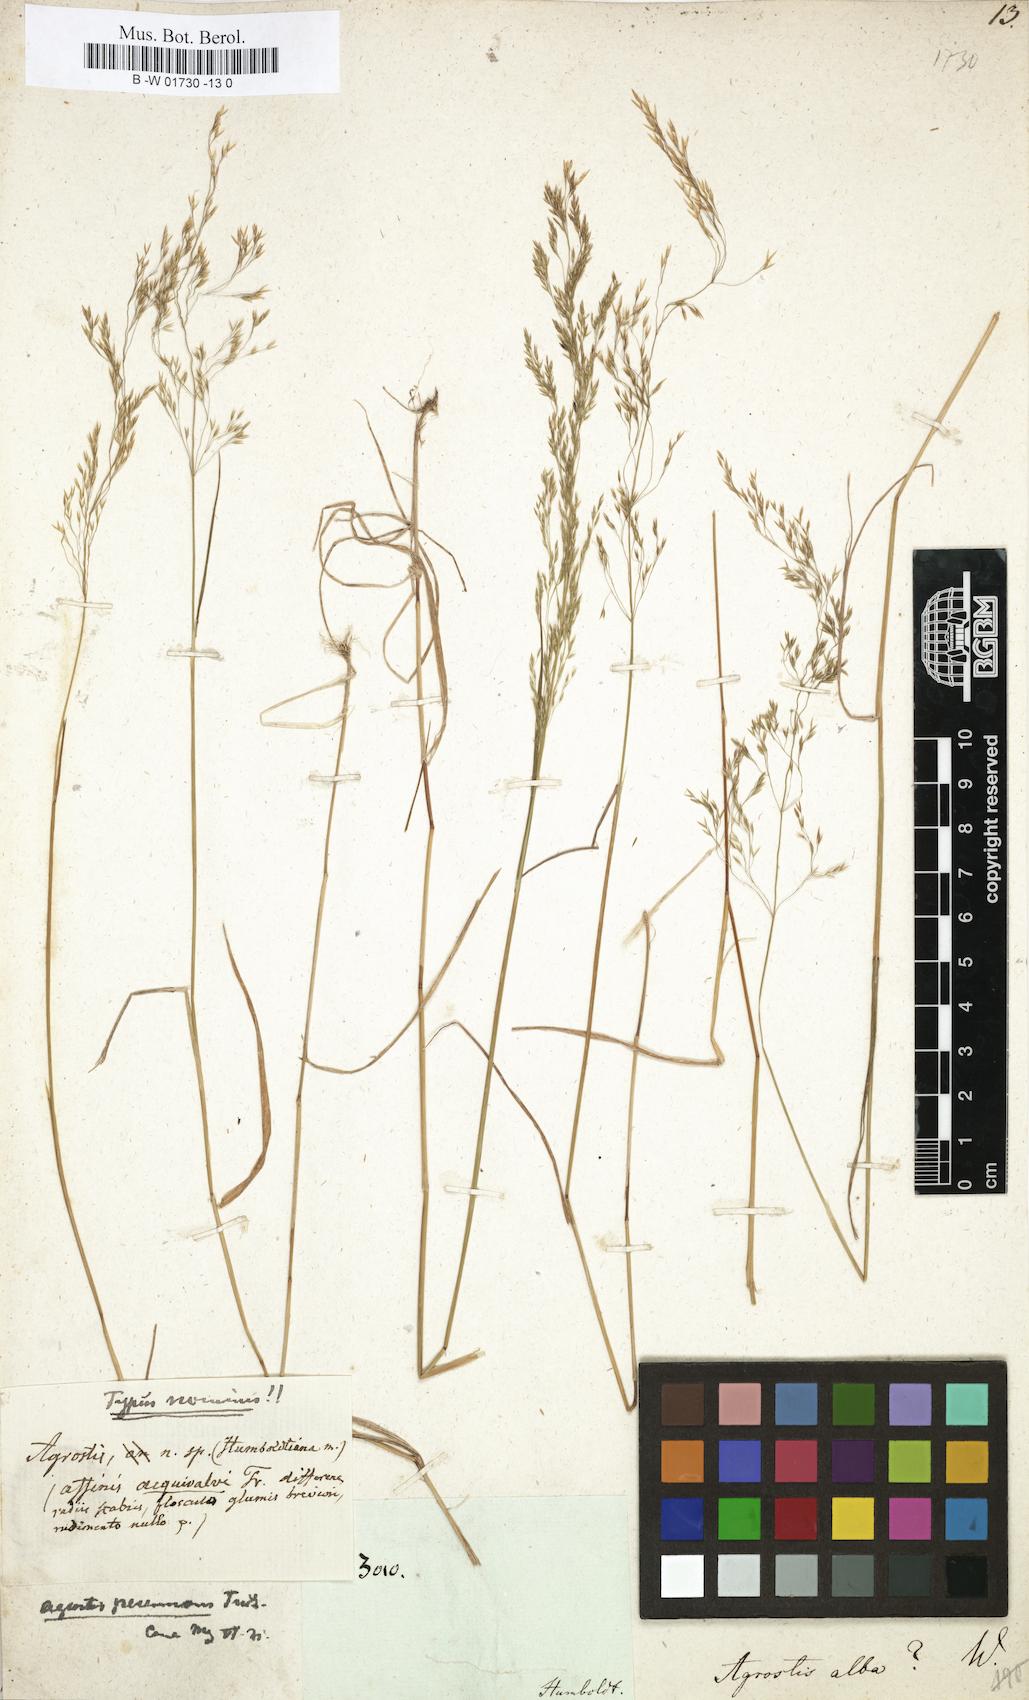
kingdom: Plantae
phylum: Tracheophyta
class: Liliopsida
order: Poales
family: Poaceae
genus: Poa
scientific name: Poa nemoralis
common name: Wood bluegrass
